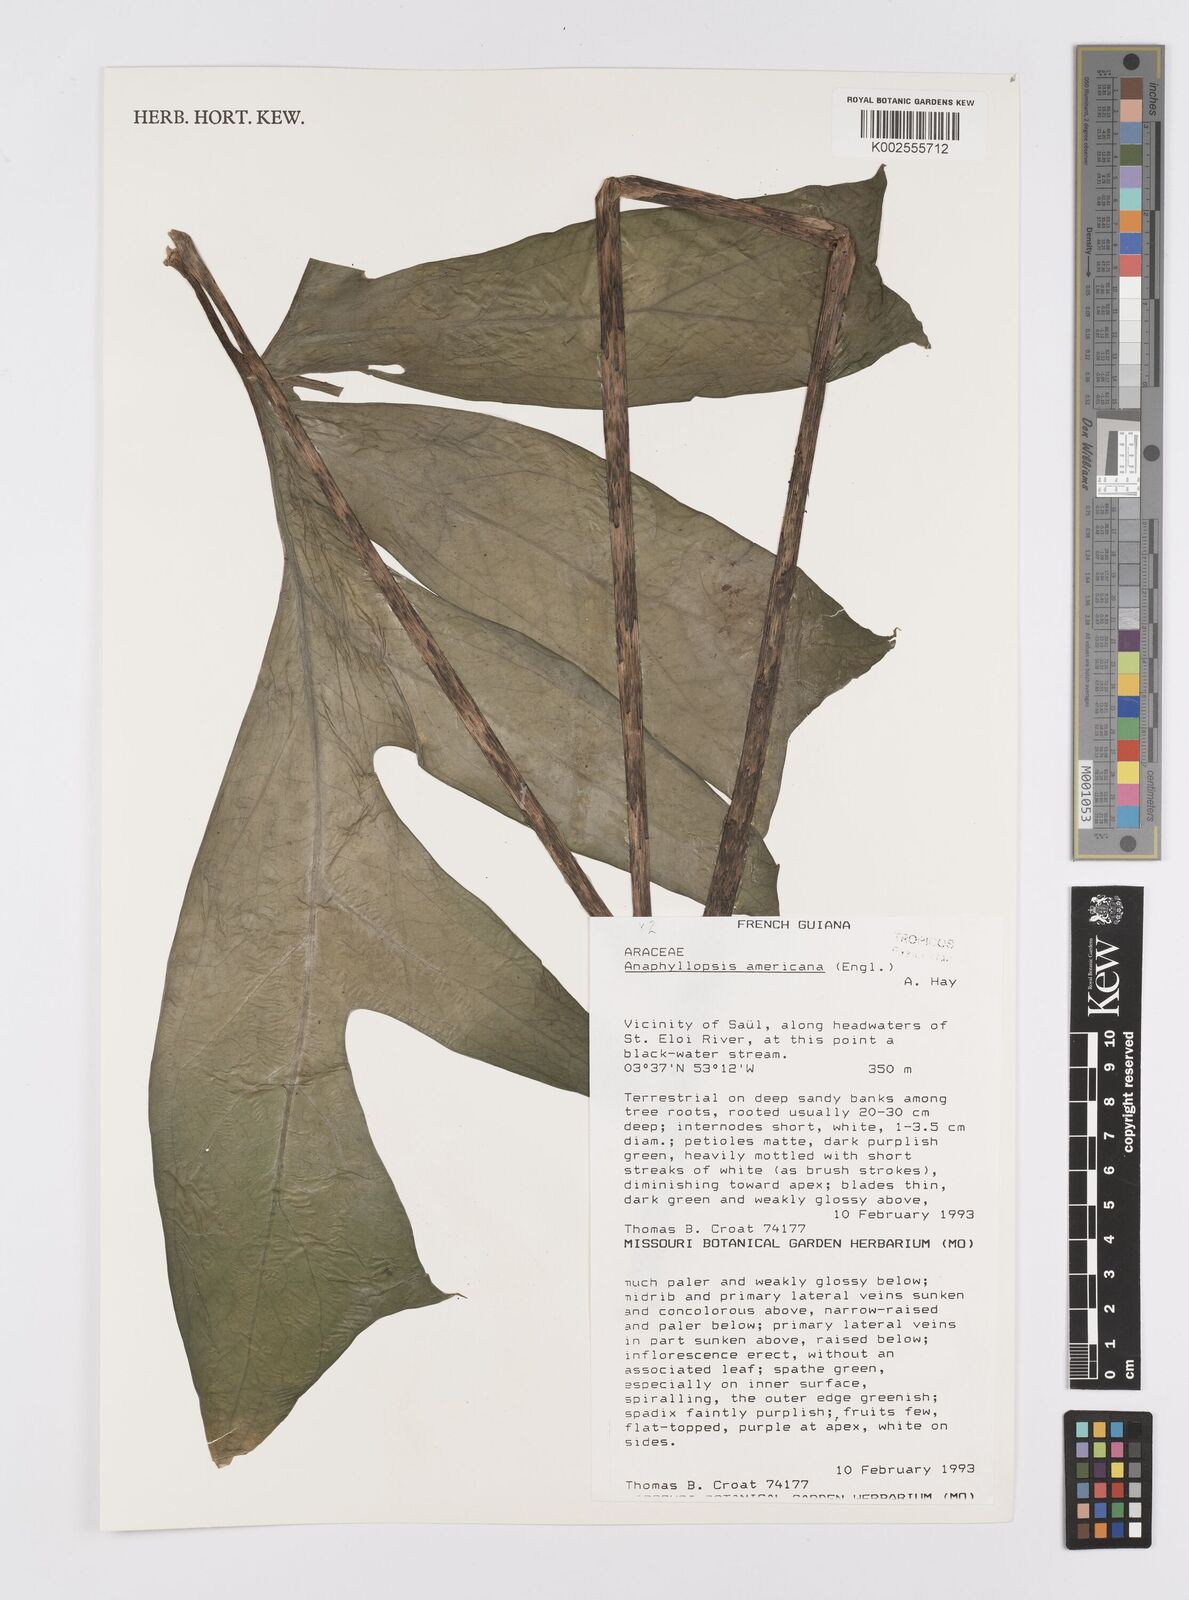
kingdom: Plantae
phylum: Tracheophyta
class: Liliopsida
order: Alismatales
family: Araceae
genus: Anaphyllopsis
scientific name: Anaphyllopsis americana
